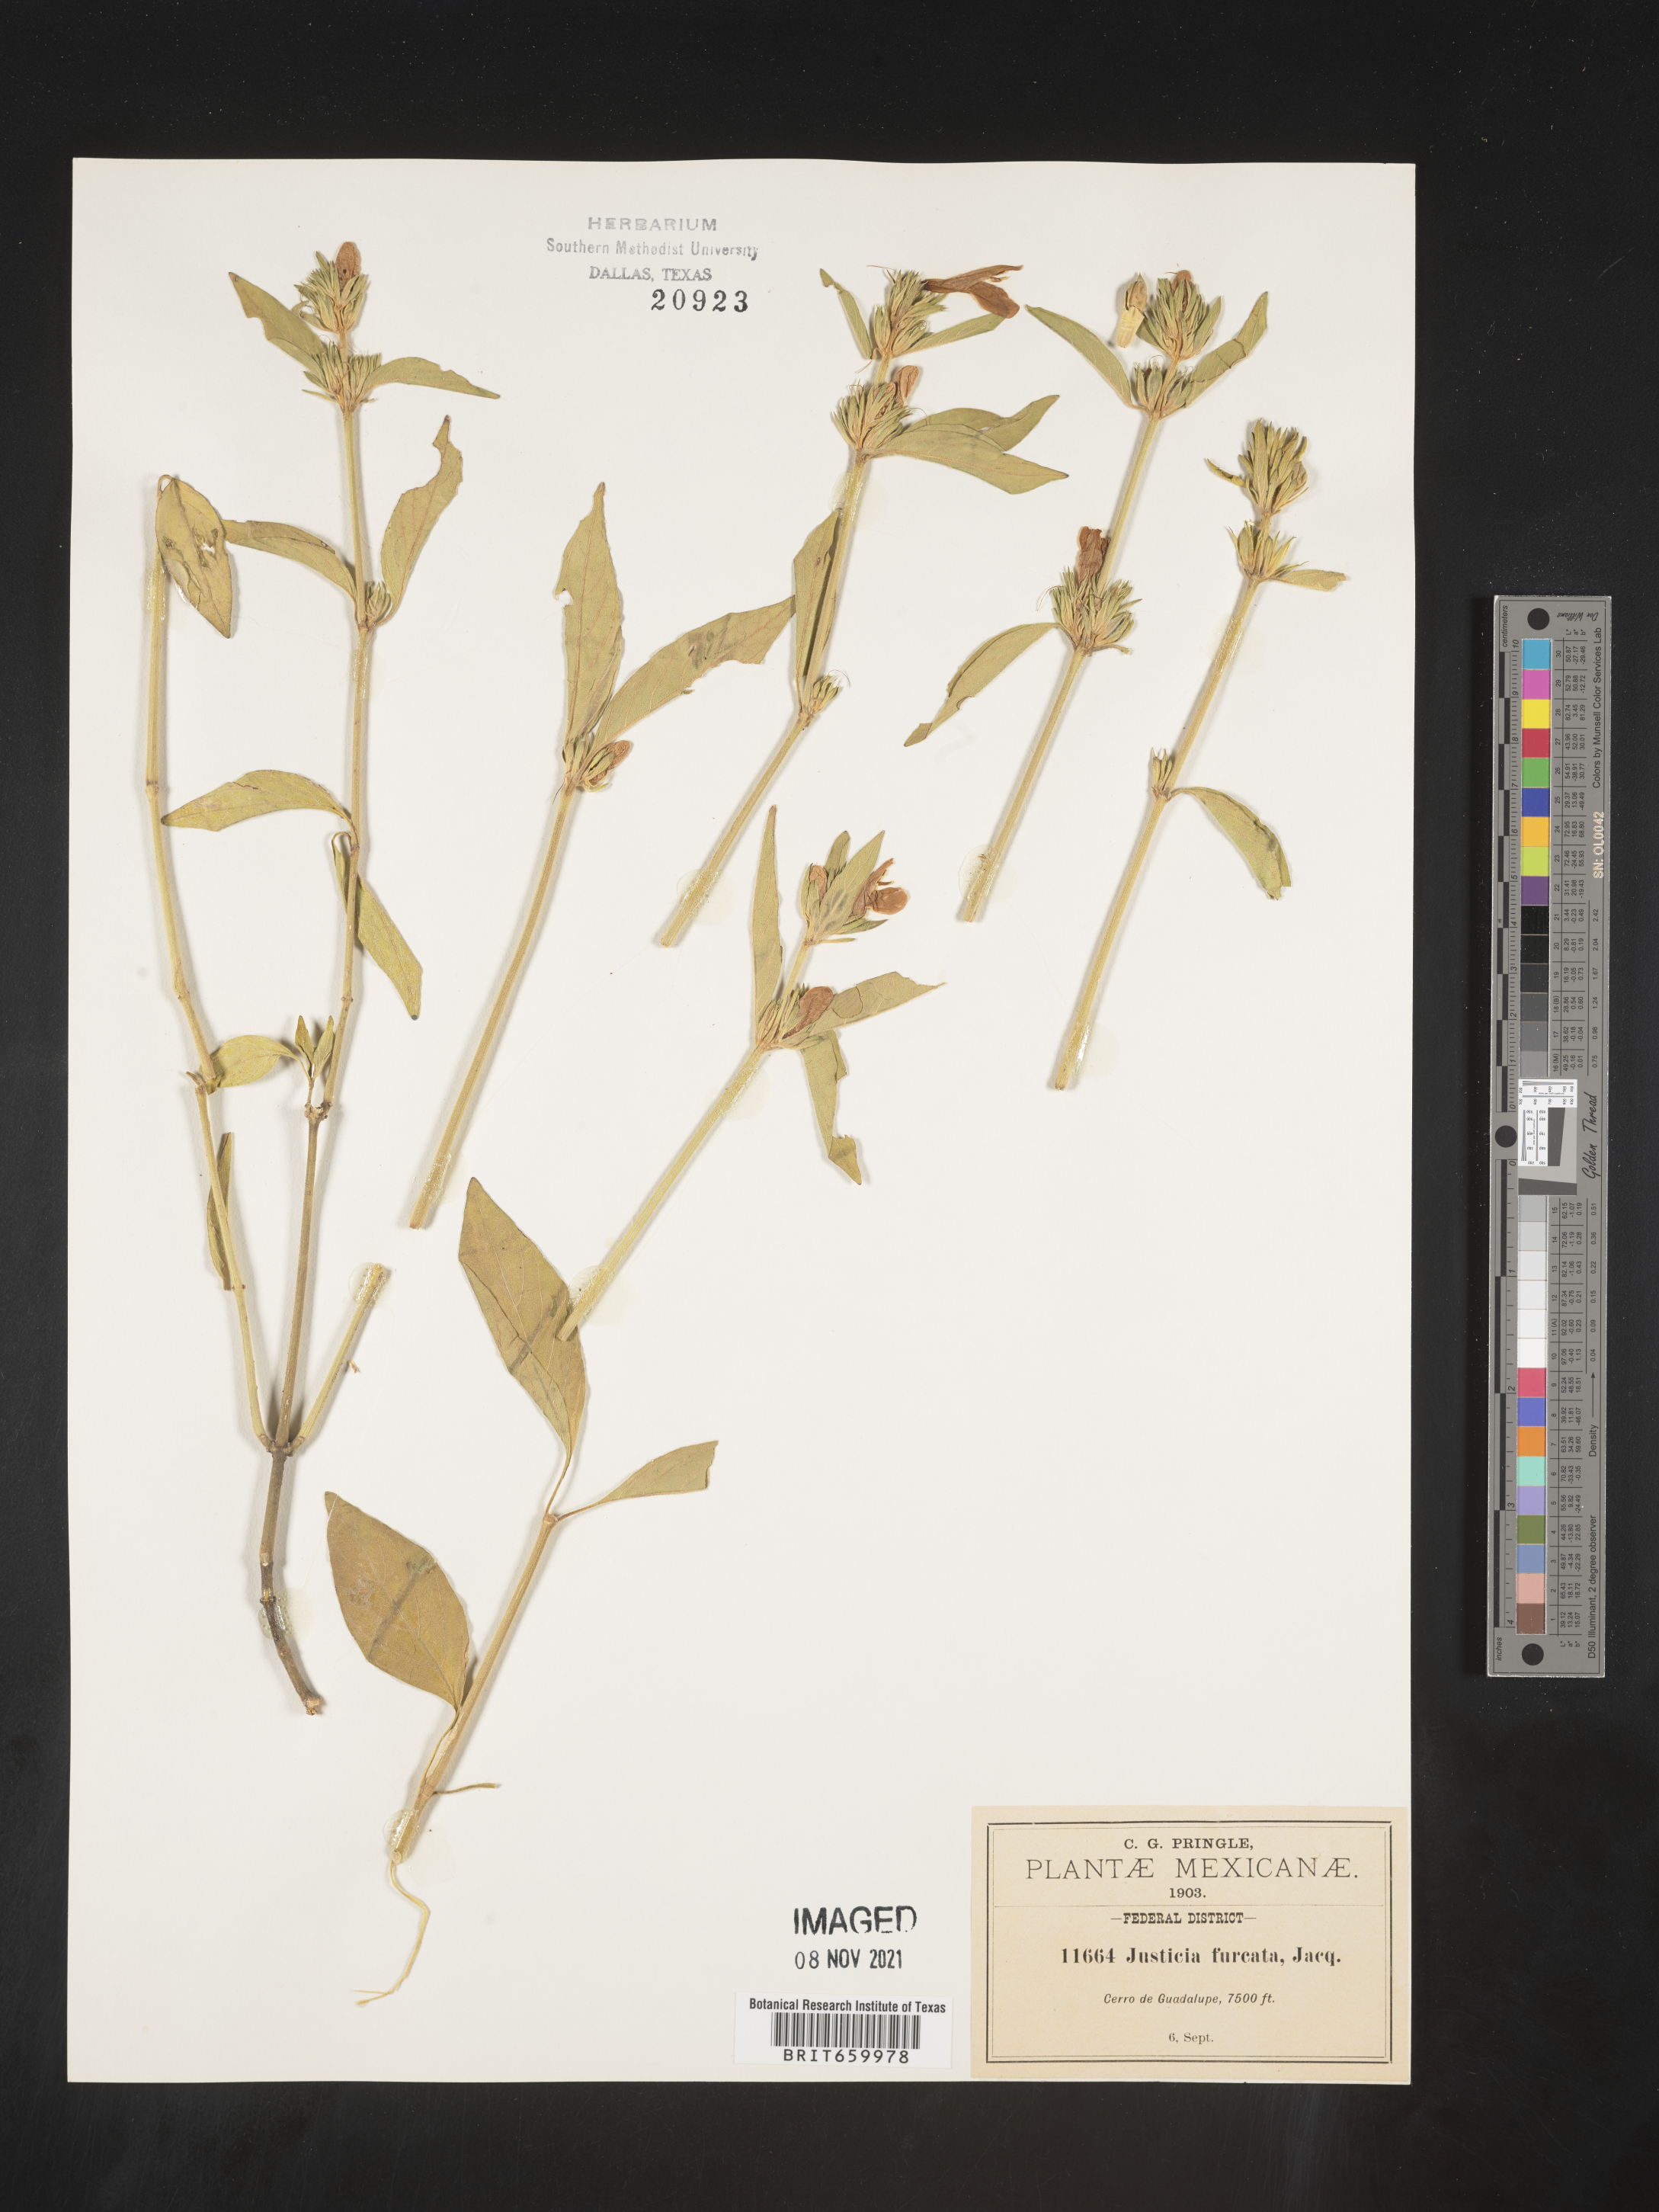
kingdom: Plantae
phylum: Tracheophyta
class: Magnoliopsida
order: Lamiales
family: Acanthaceae
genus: Justicia
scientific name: Justicia
